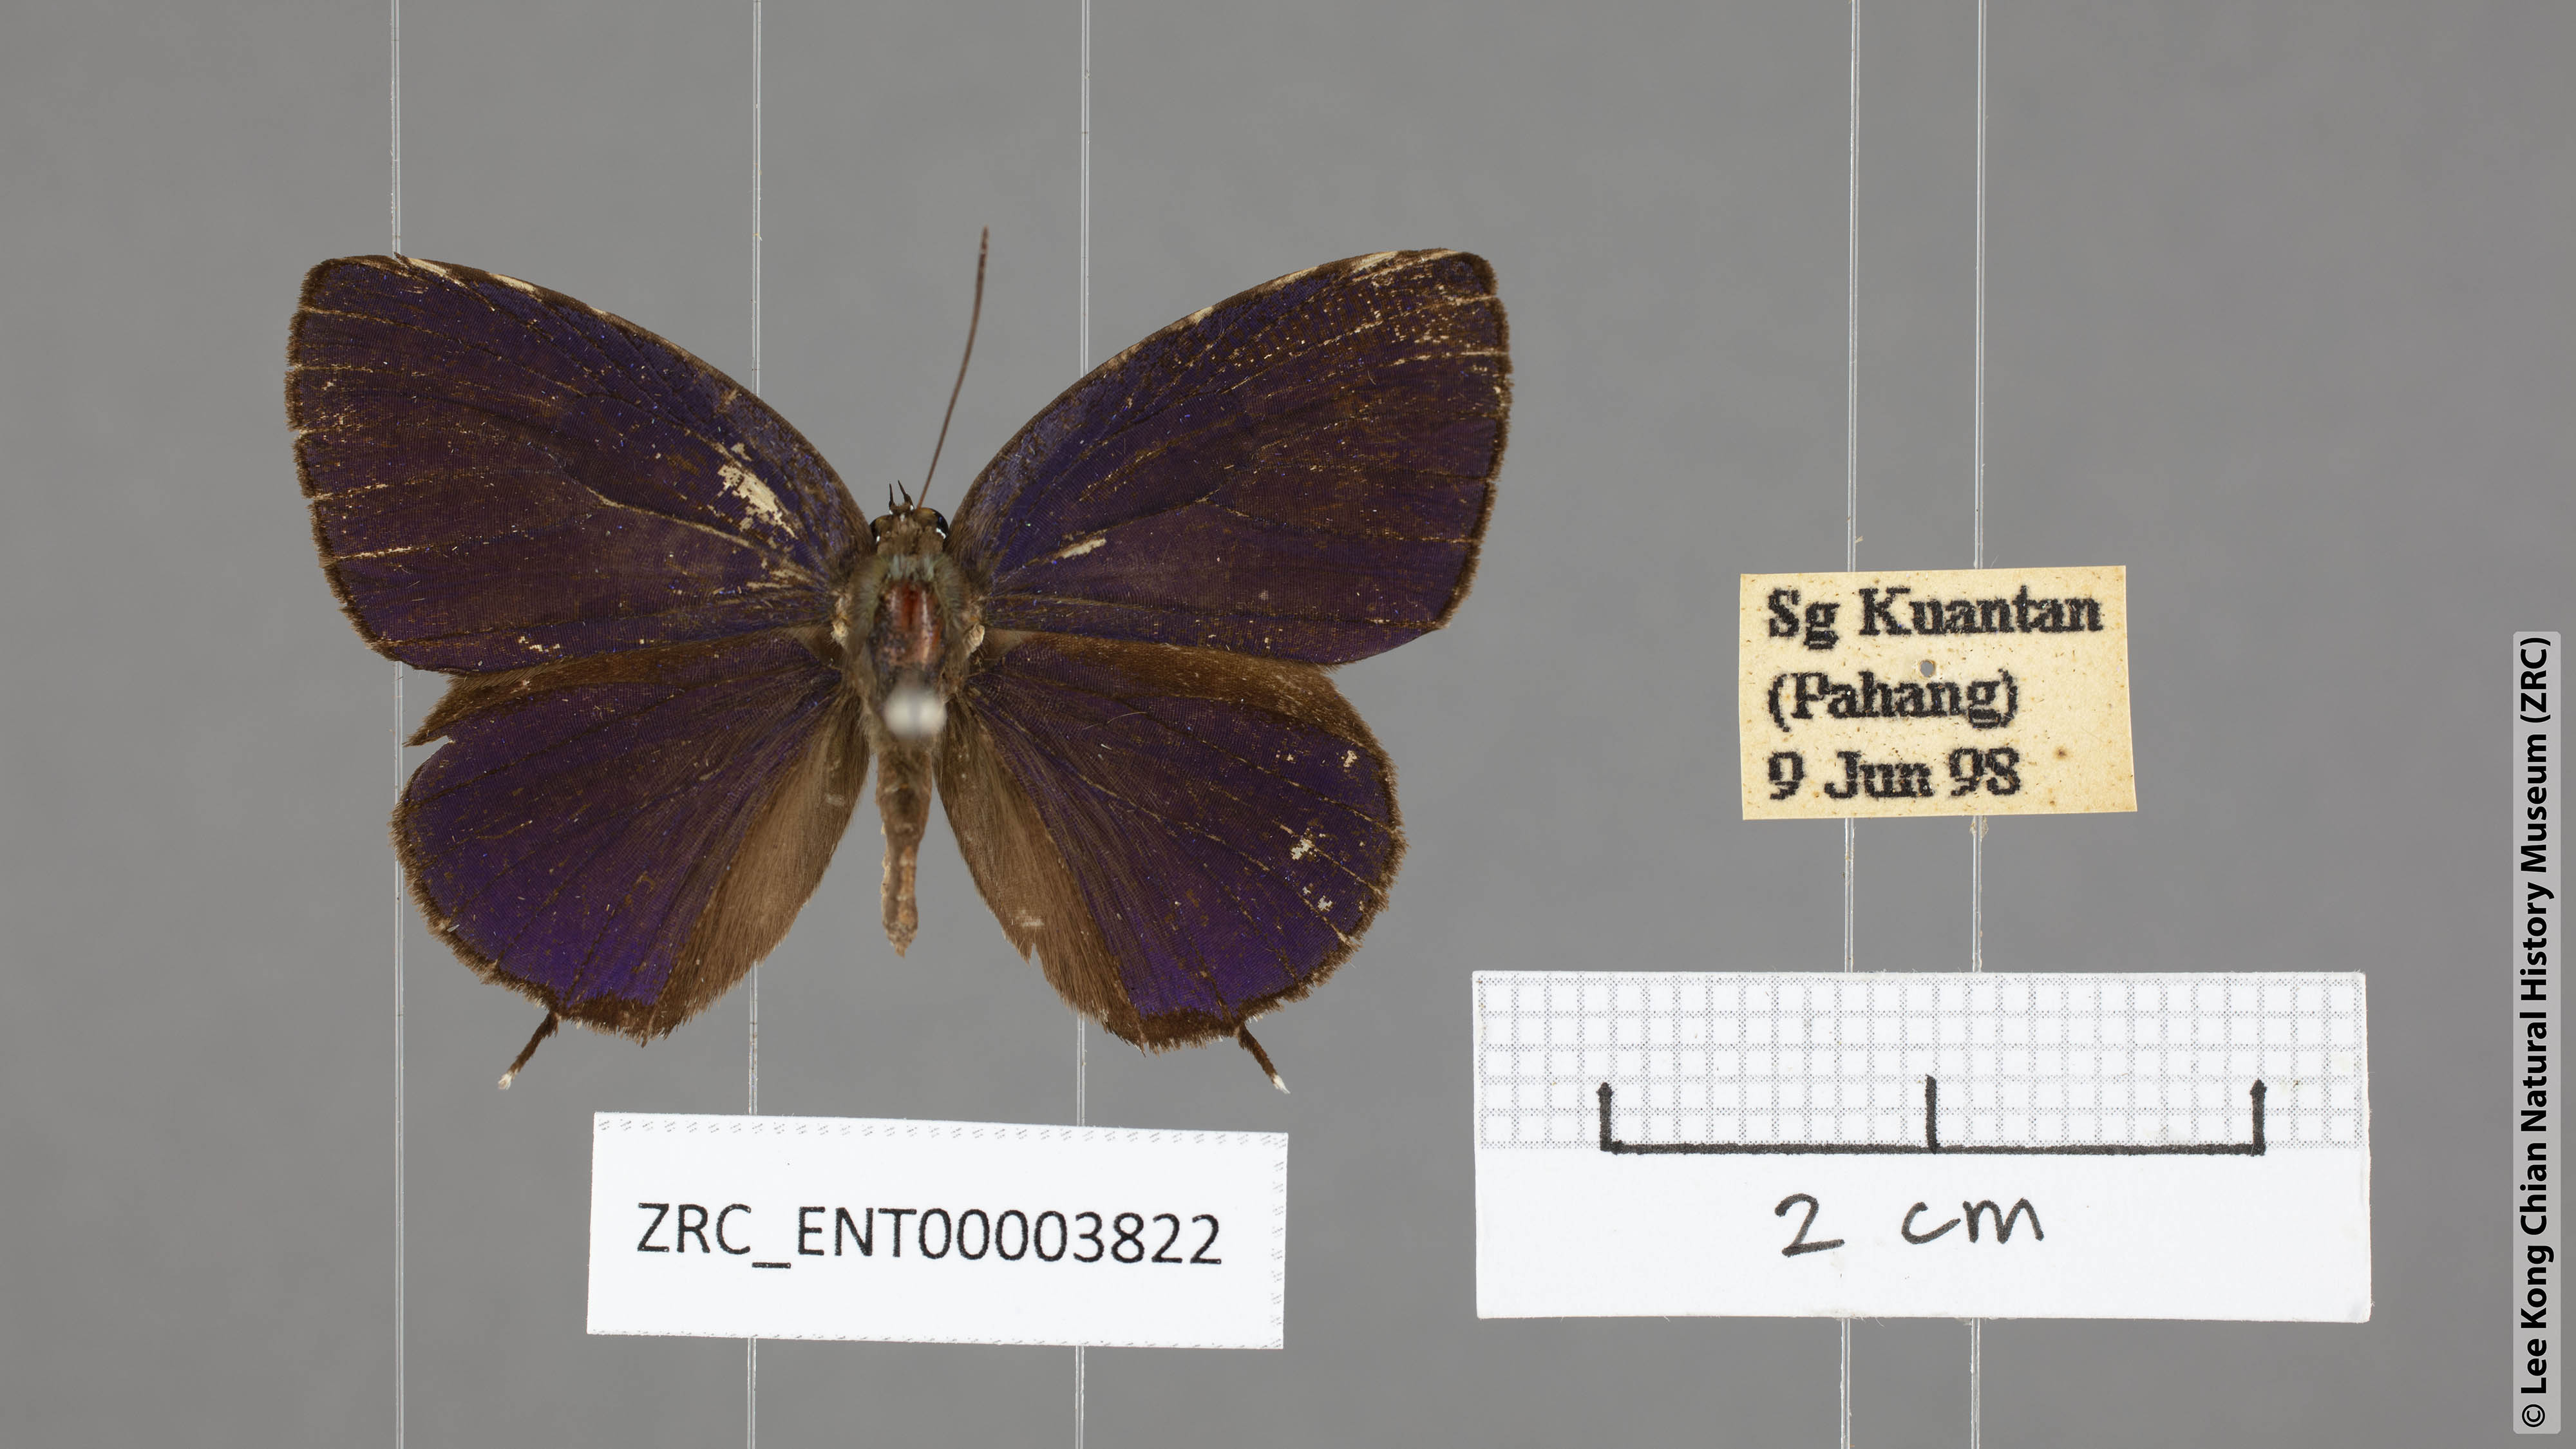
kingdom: Animalia
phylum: Arthropoda
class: Insecta
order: Lepidoptera
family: Lycaenidae
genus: Arhopala
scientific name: Arhopala agrata
